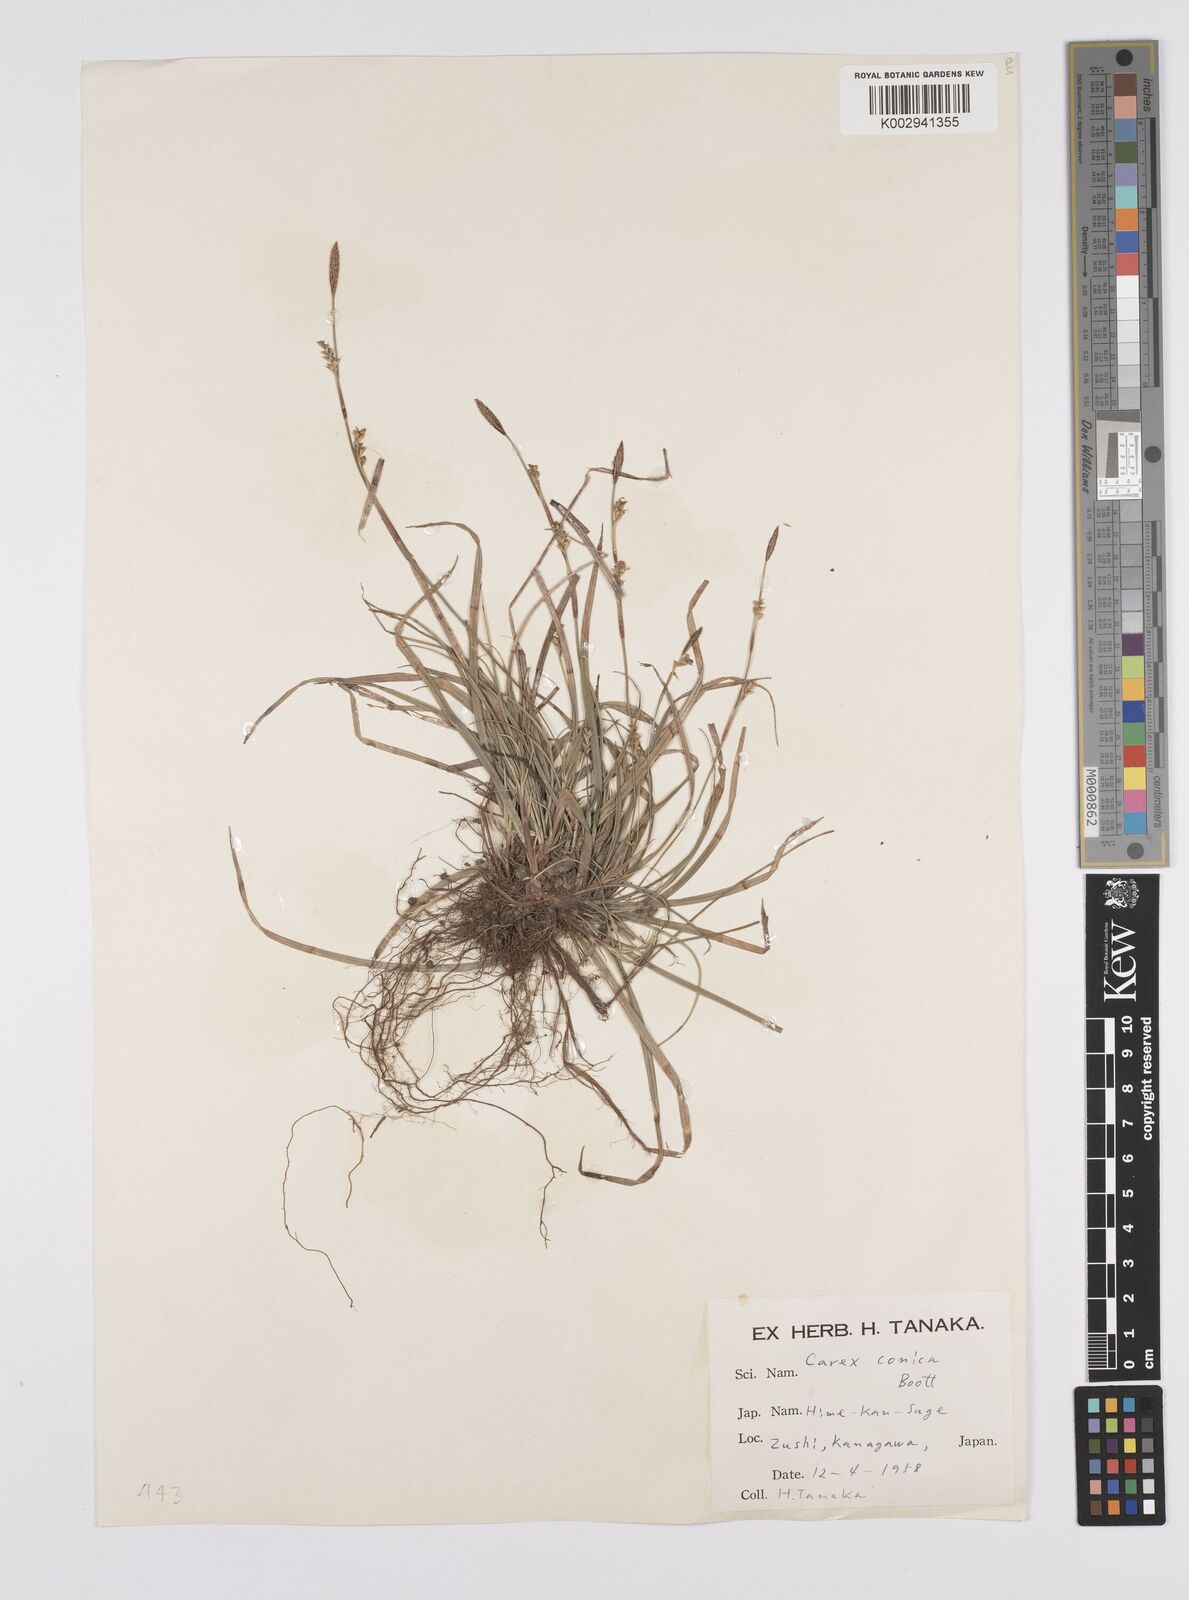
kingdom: Plantae
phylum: Tracheophyta
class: Liliopsida
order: Poales
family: Cyperaceae
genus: Carex
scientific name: Carex conica
